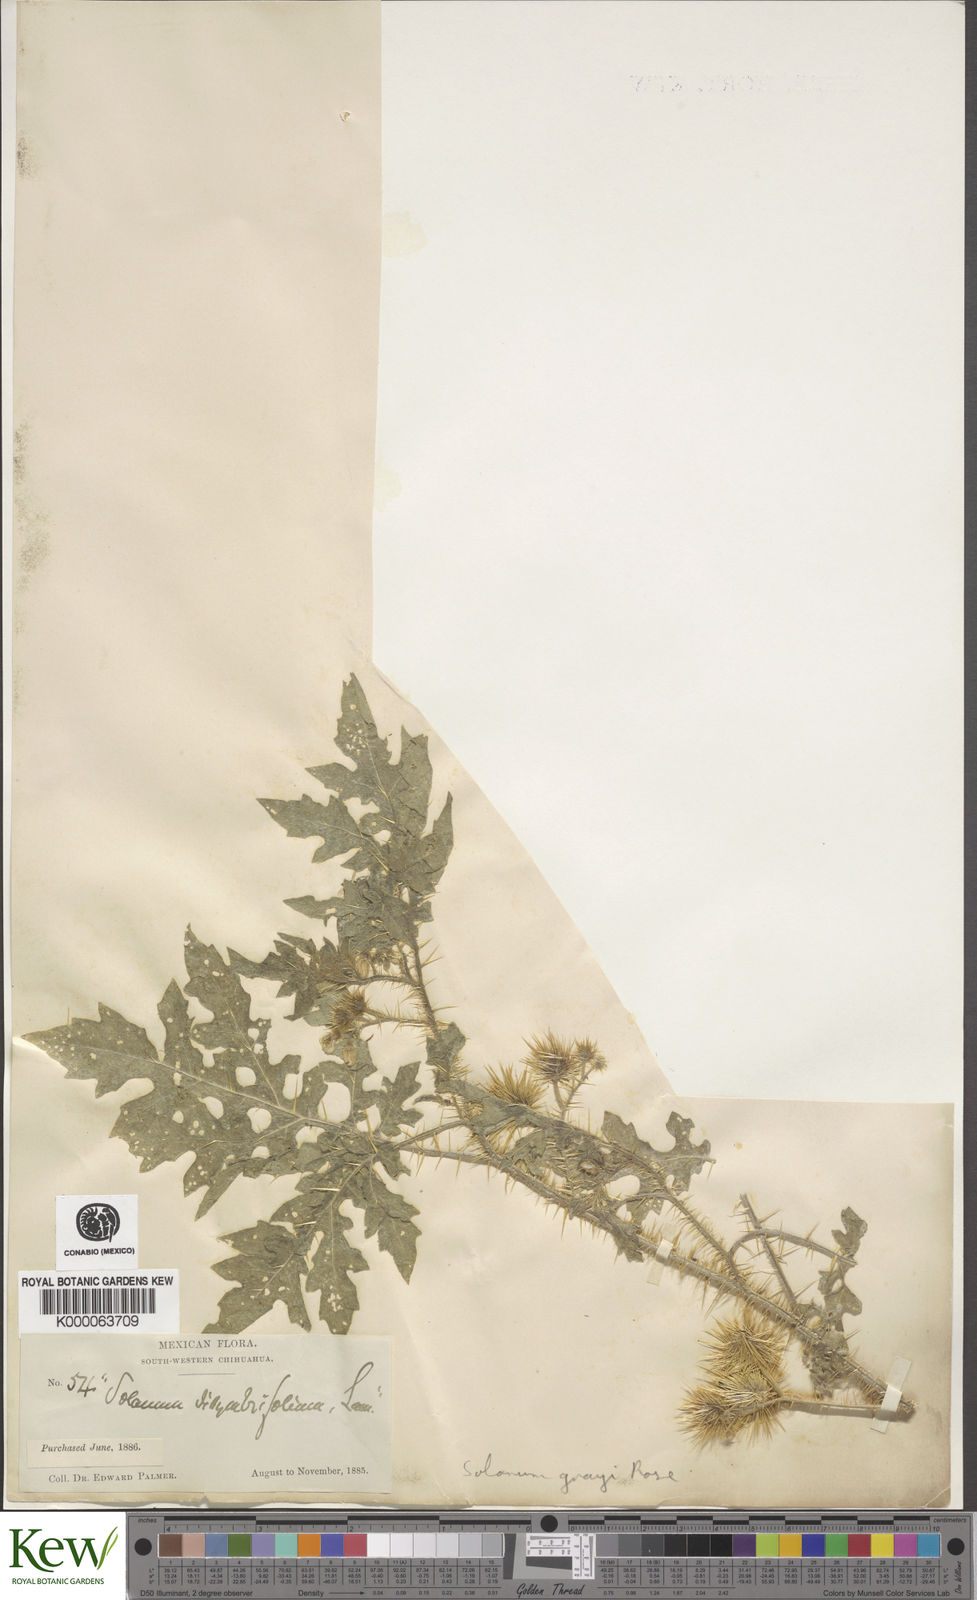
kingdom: Plantae
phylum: Tracheophyta
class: Magnoliopsida
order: Solanales
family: Solanaceae
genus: Solanum
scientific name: Solanum grayi
